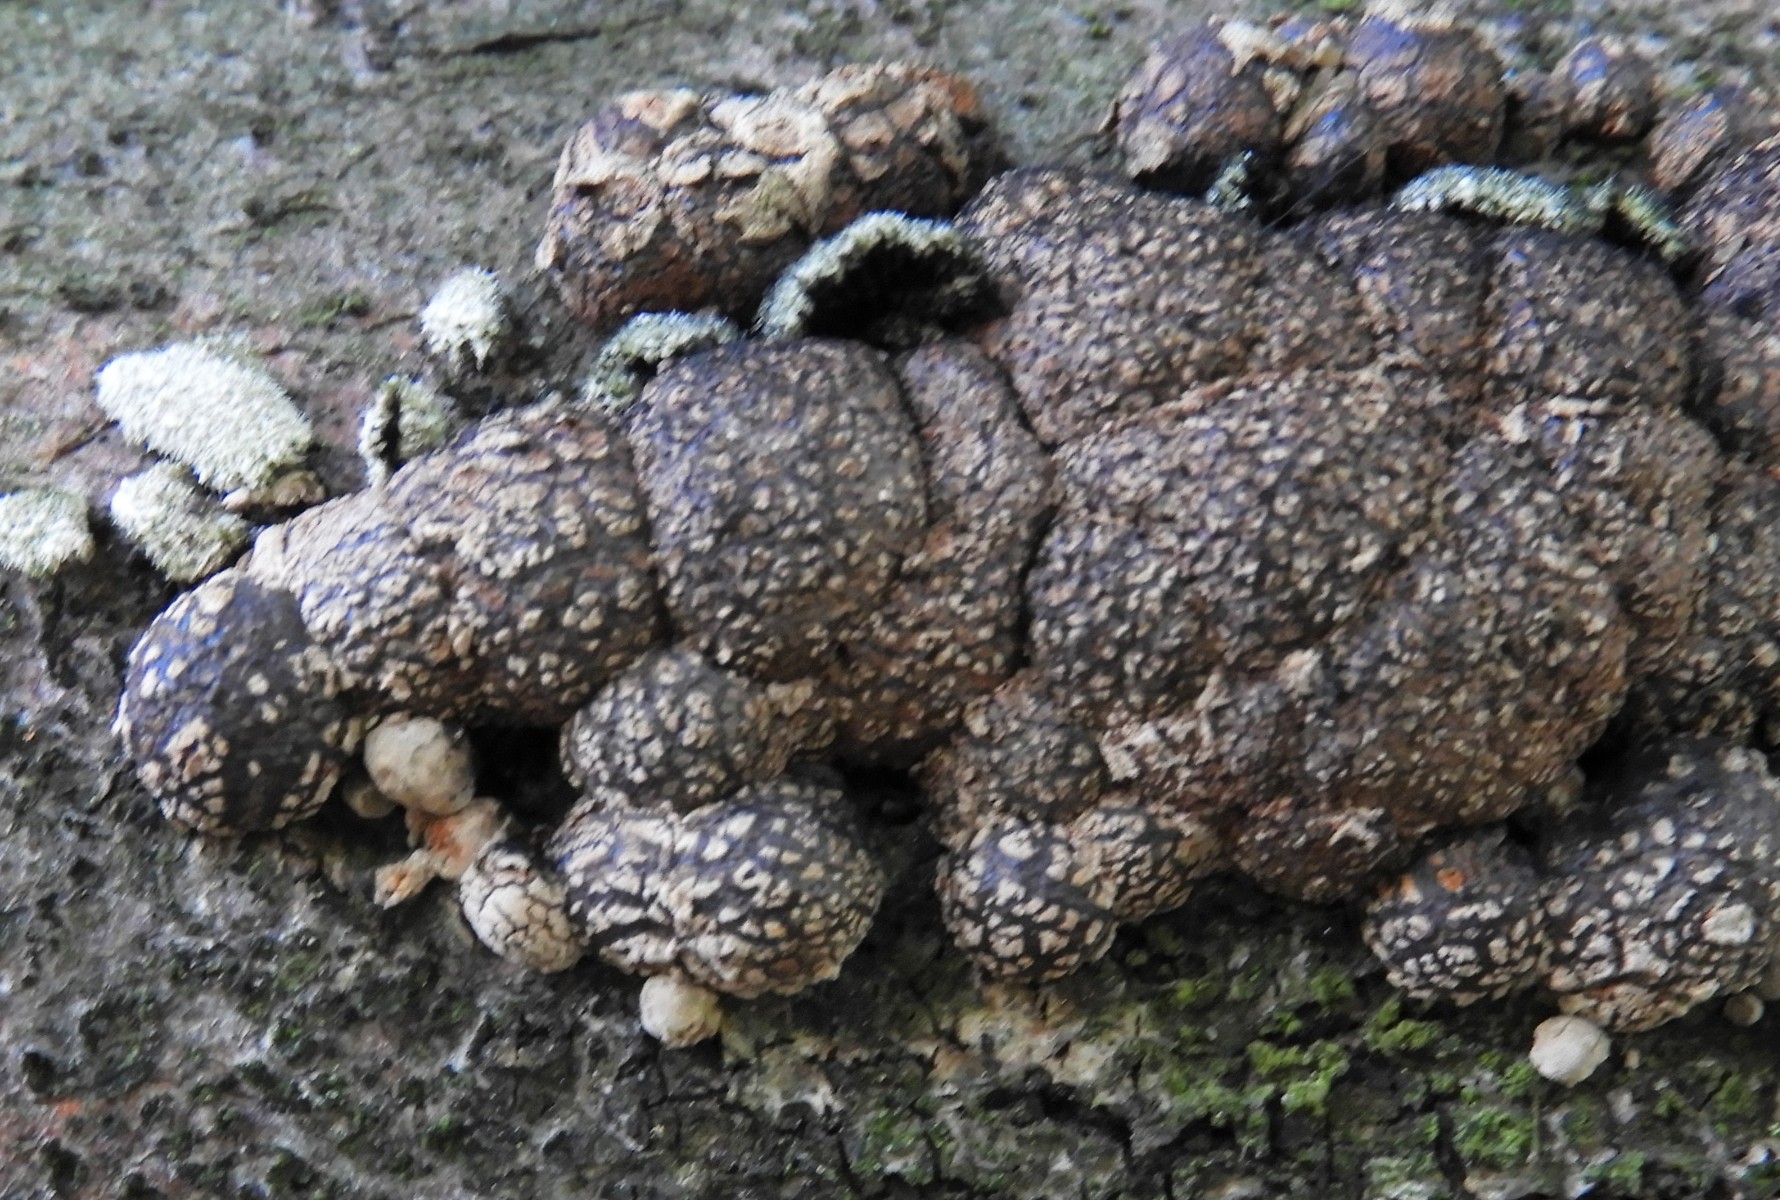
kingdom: Fungi
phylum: Ascomycota
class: Sordariomycetes
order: Xylariales
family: Hypoxylaceae
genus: Hypoxylon
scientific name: Hypoxylon fragiforme
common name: kuljordbær
